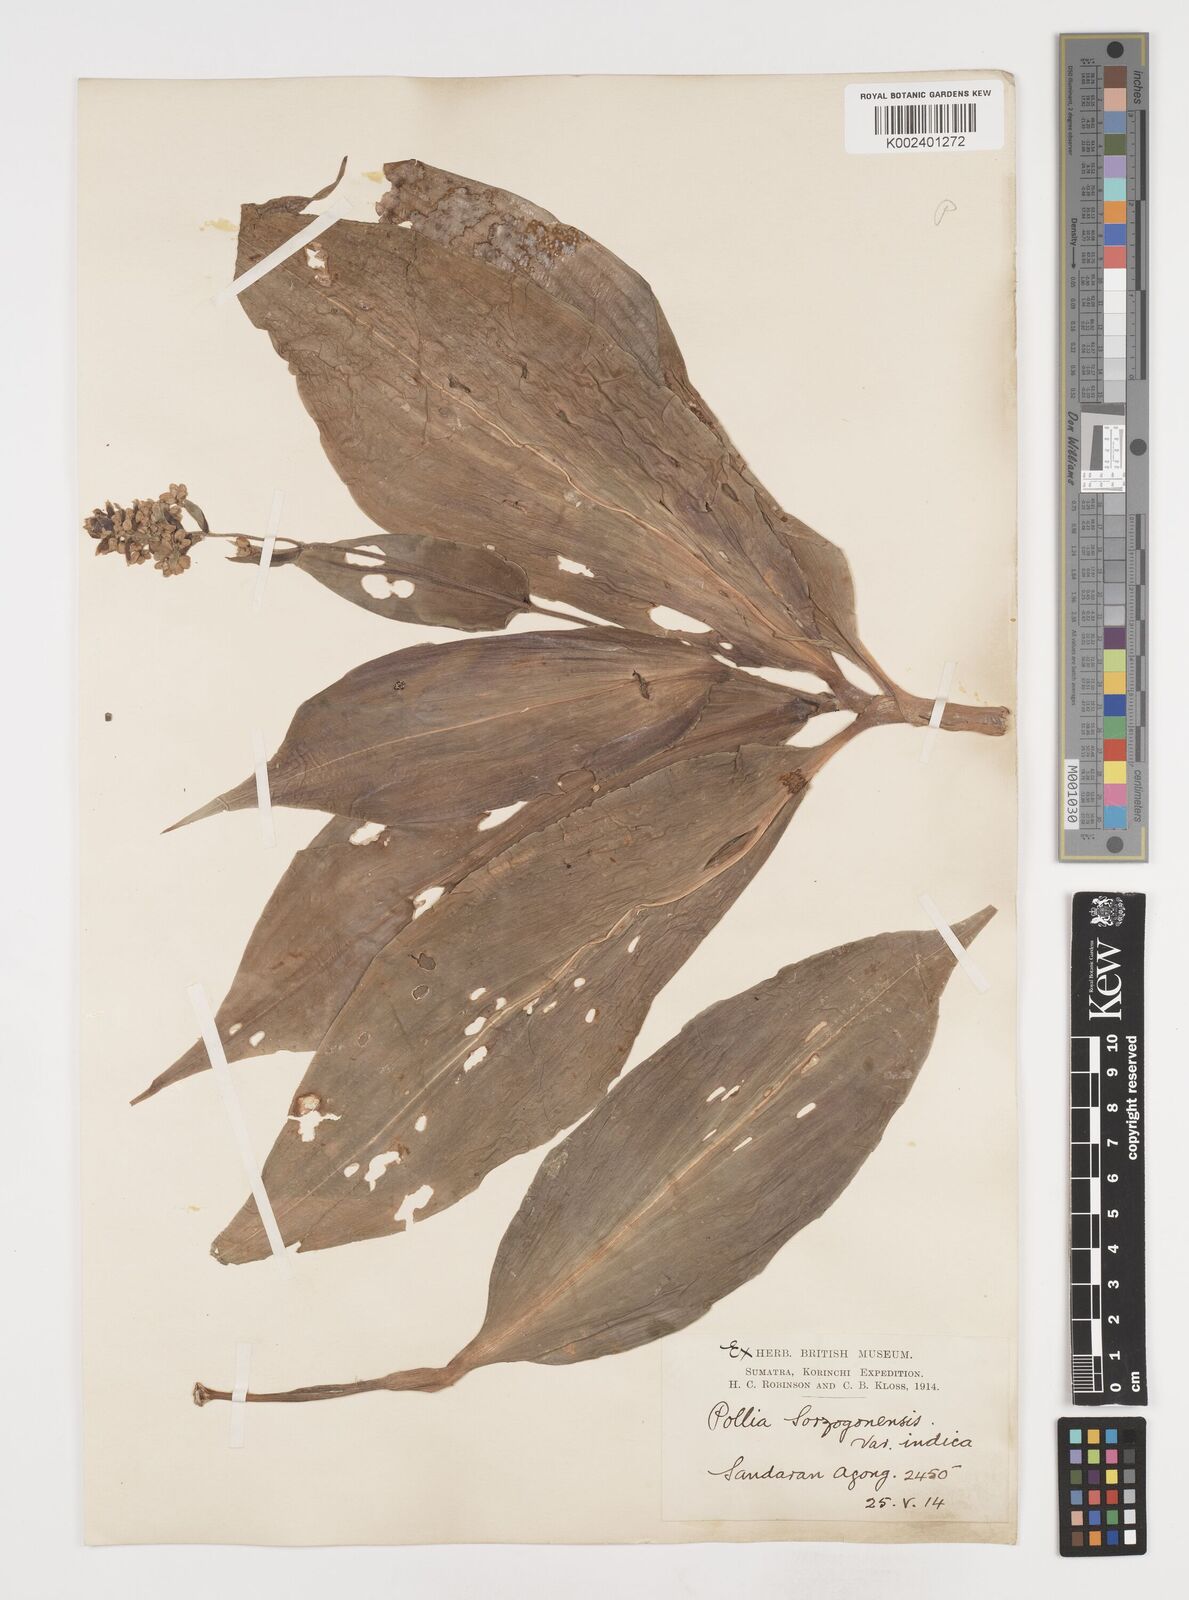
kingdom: Plantae
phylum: Tracheophyta
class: Liliopsida
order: Commelinales
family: Commelinaceae
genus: Pollia
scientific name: Pollia secundiflora
